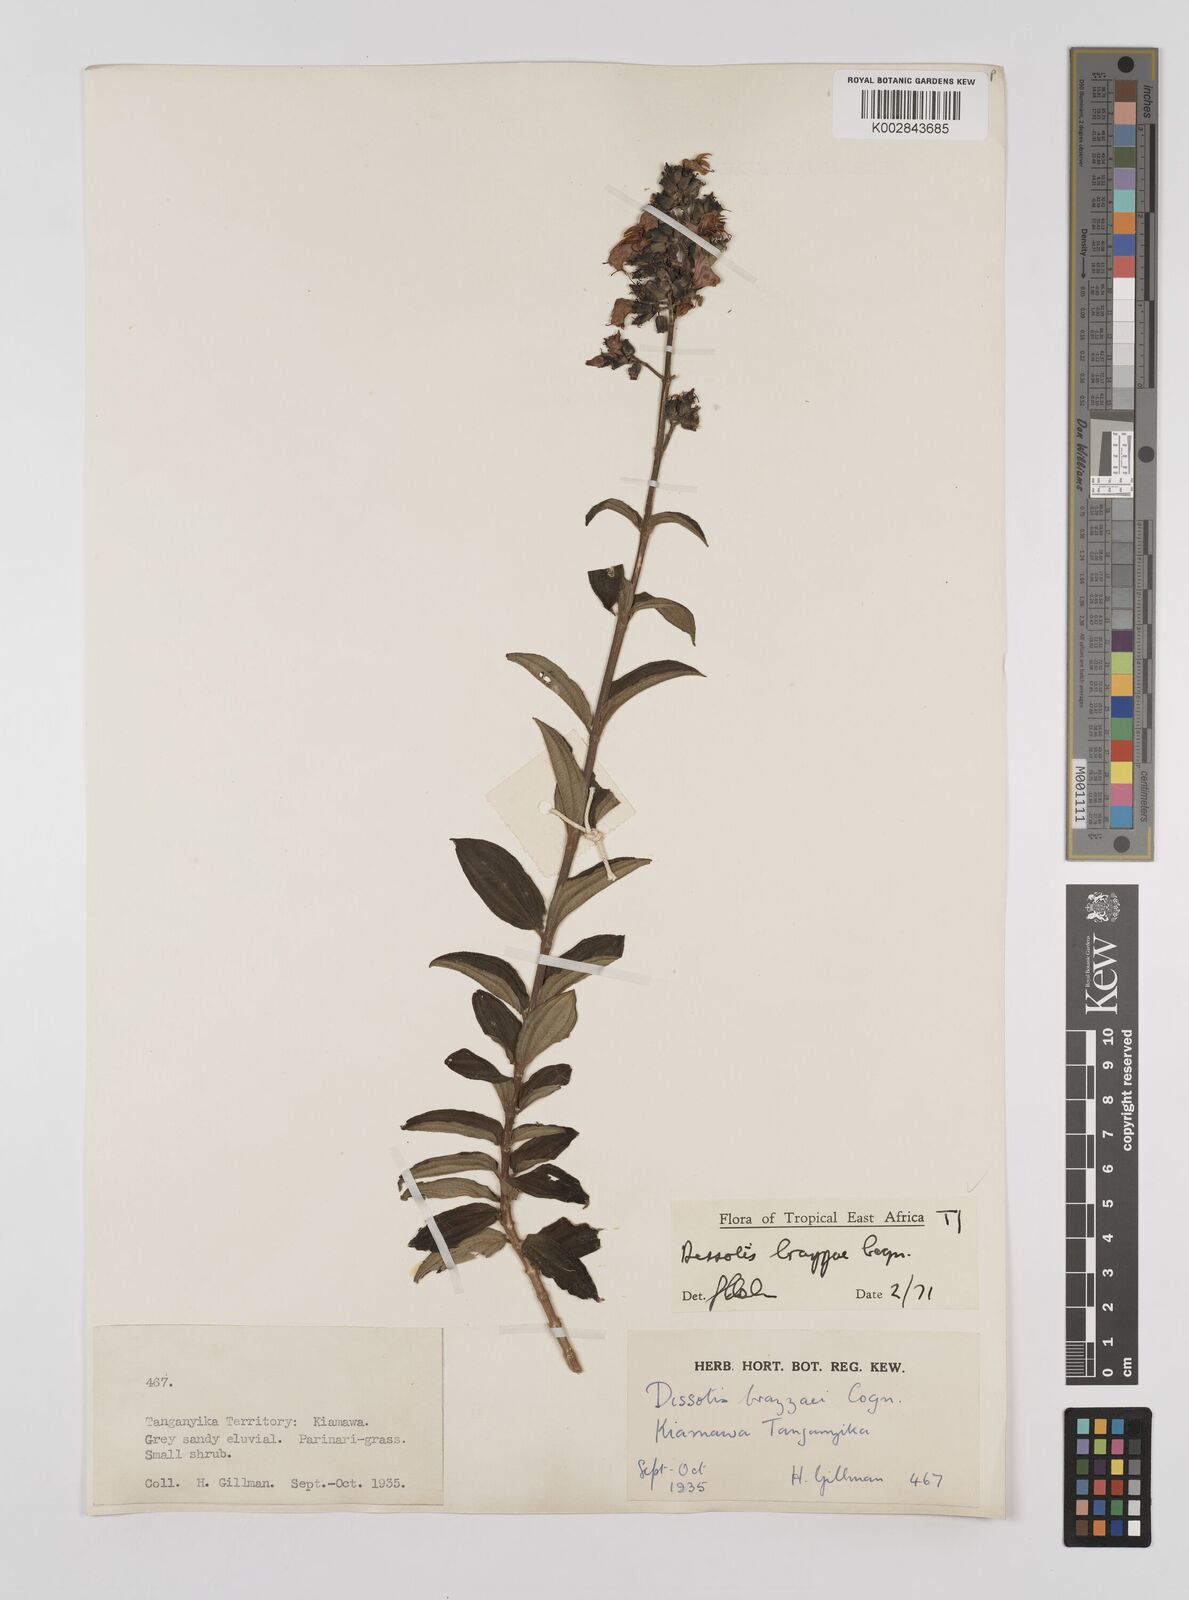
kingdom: Plantae
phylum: Tracheophyta
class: Magnoliopsida
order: Myrtales
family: Melastomataceae
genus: Dupineta
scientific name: Dupineta brazzae
